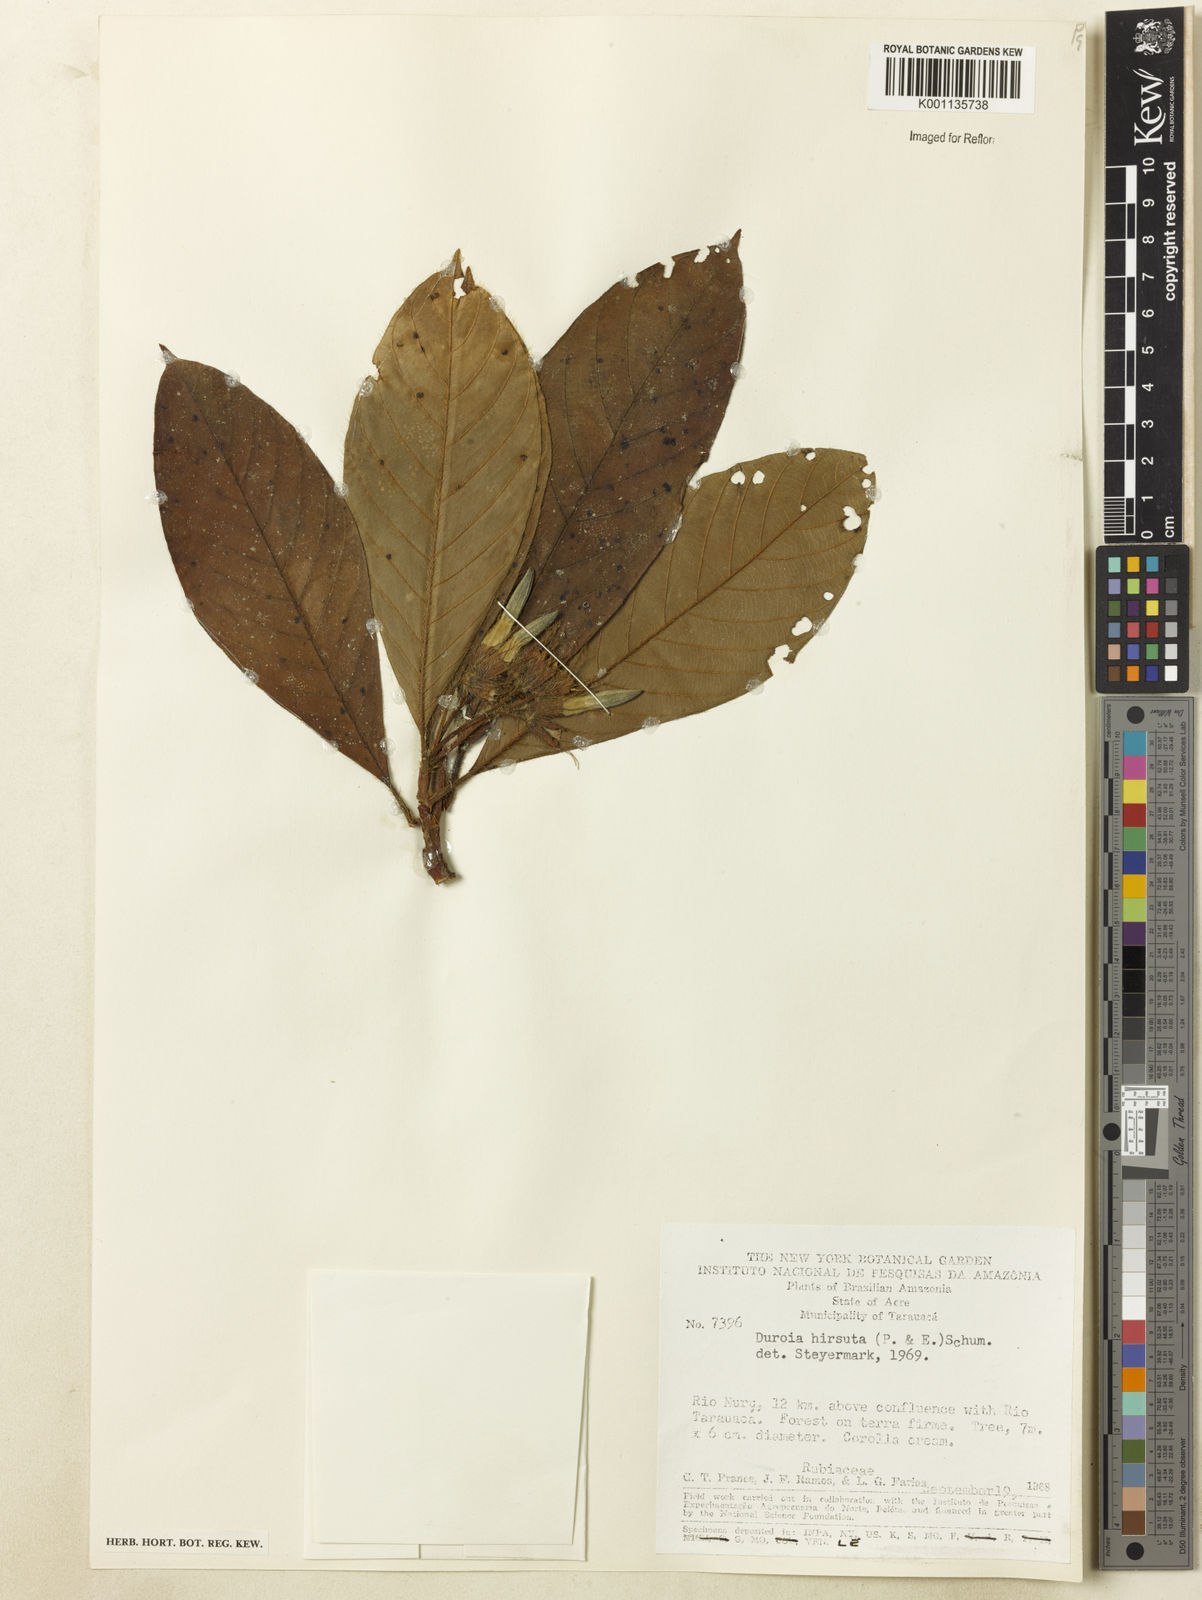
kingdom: Plantae
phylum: Tracheophyta
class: Magnoliopsida
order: Gentianales
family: Rubiaceae
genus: Duroia
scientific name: Duroia hirsuta
